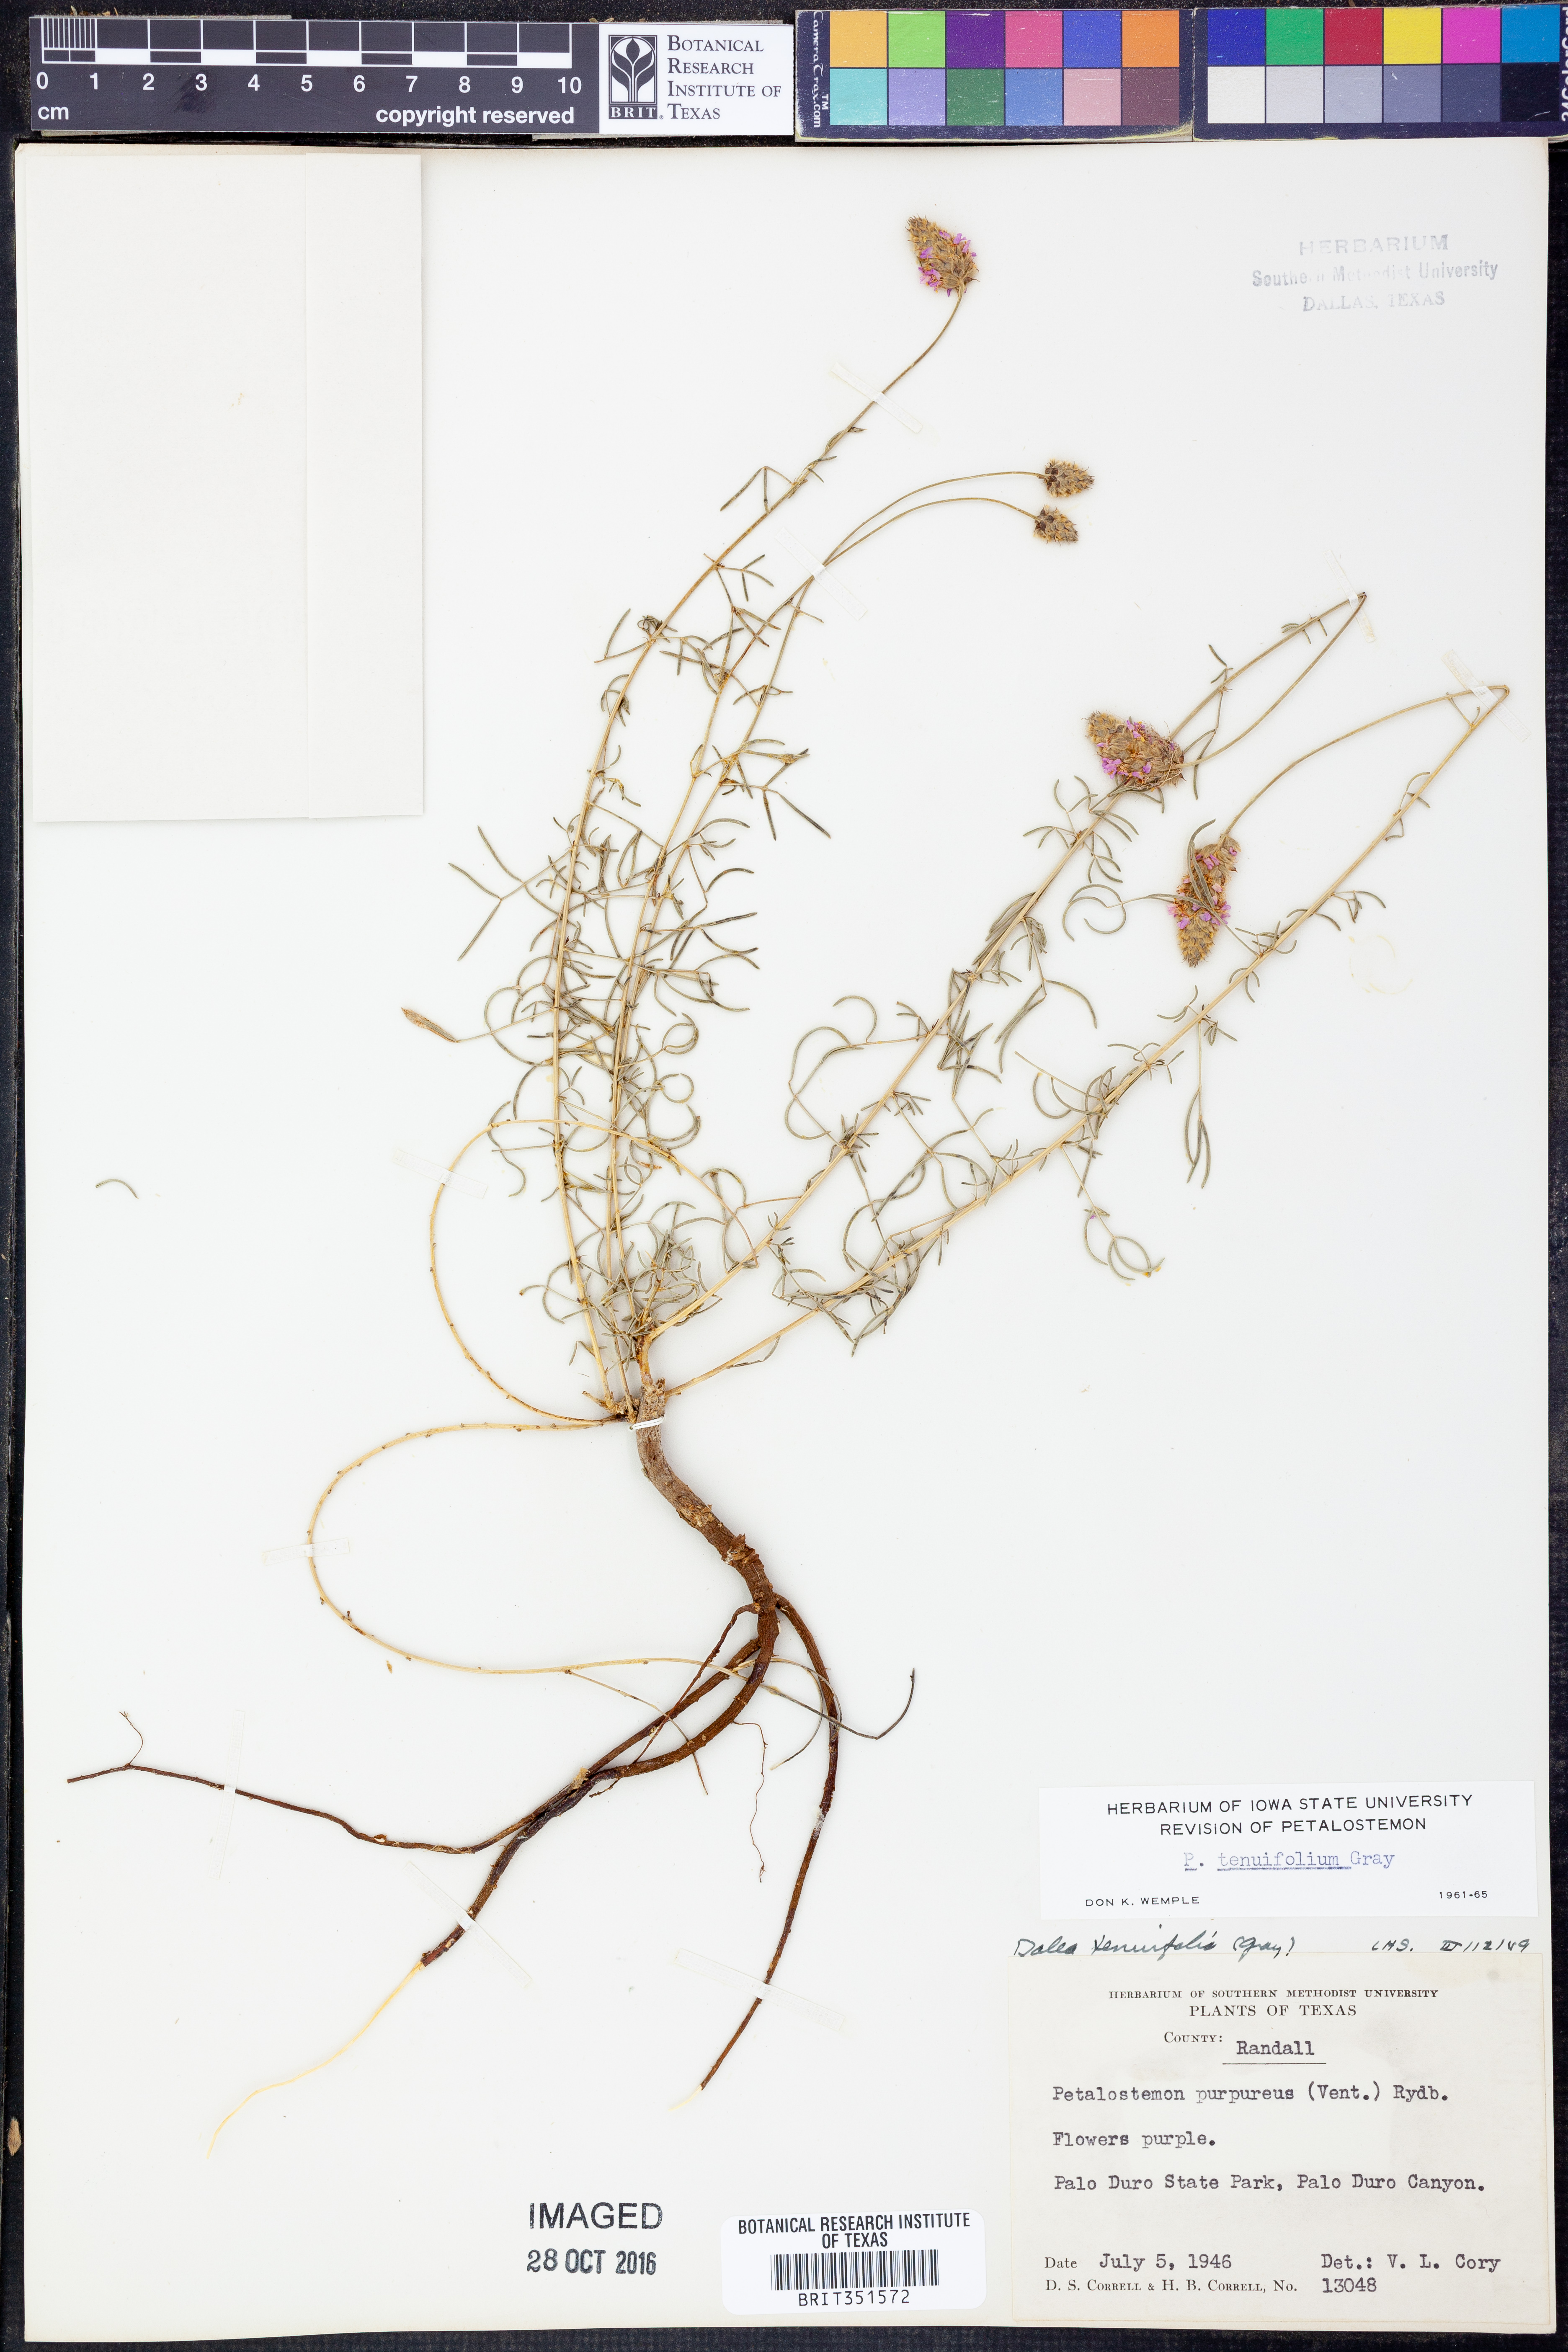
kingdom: Plantae
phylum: Tracheophyta
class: Magnoliopsida
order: Fabales
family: Fabaceae
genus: Dalea
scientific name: Dalea tenuifolia
